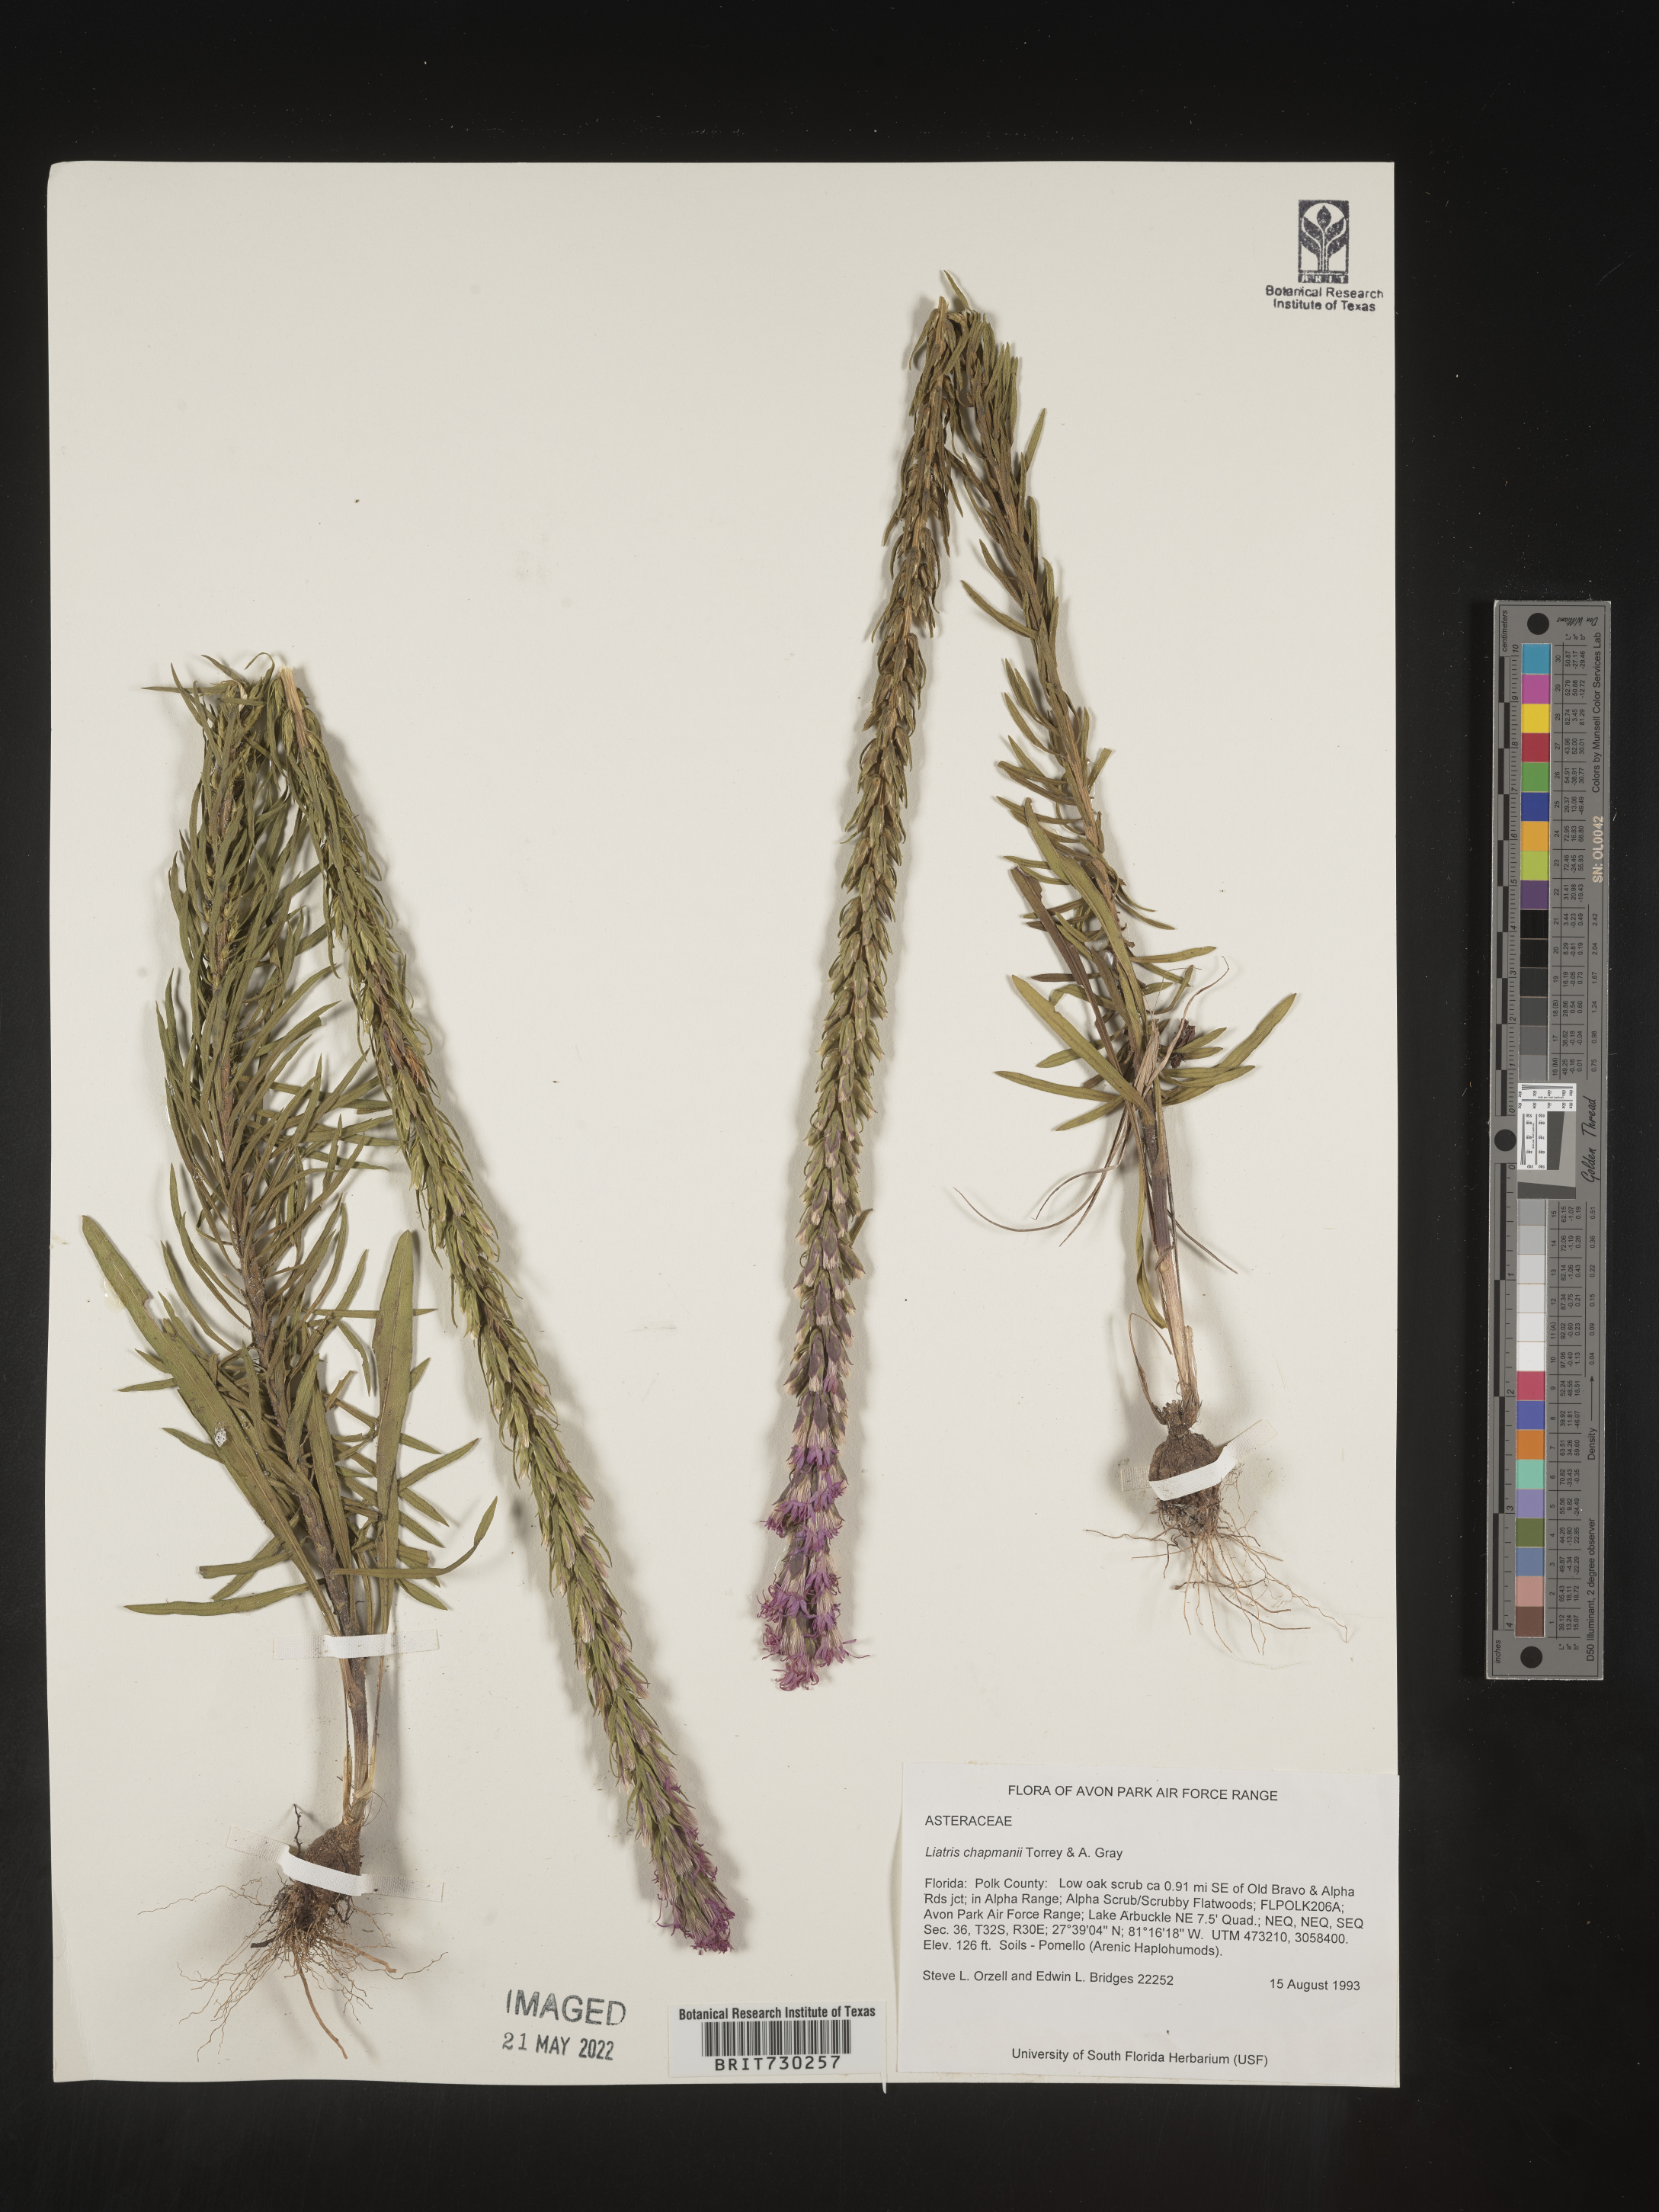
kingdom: Plantae
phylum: Tracheophyta
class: Magnoliopsida
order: Asterales
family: Asteraceae
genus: Liatris
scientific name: Liatris chapmanii
